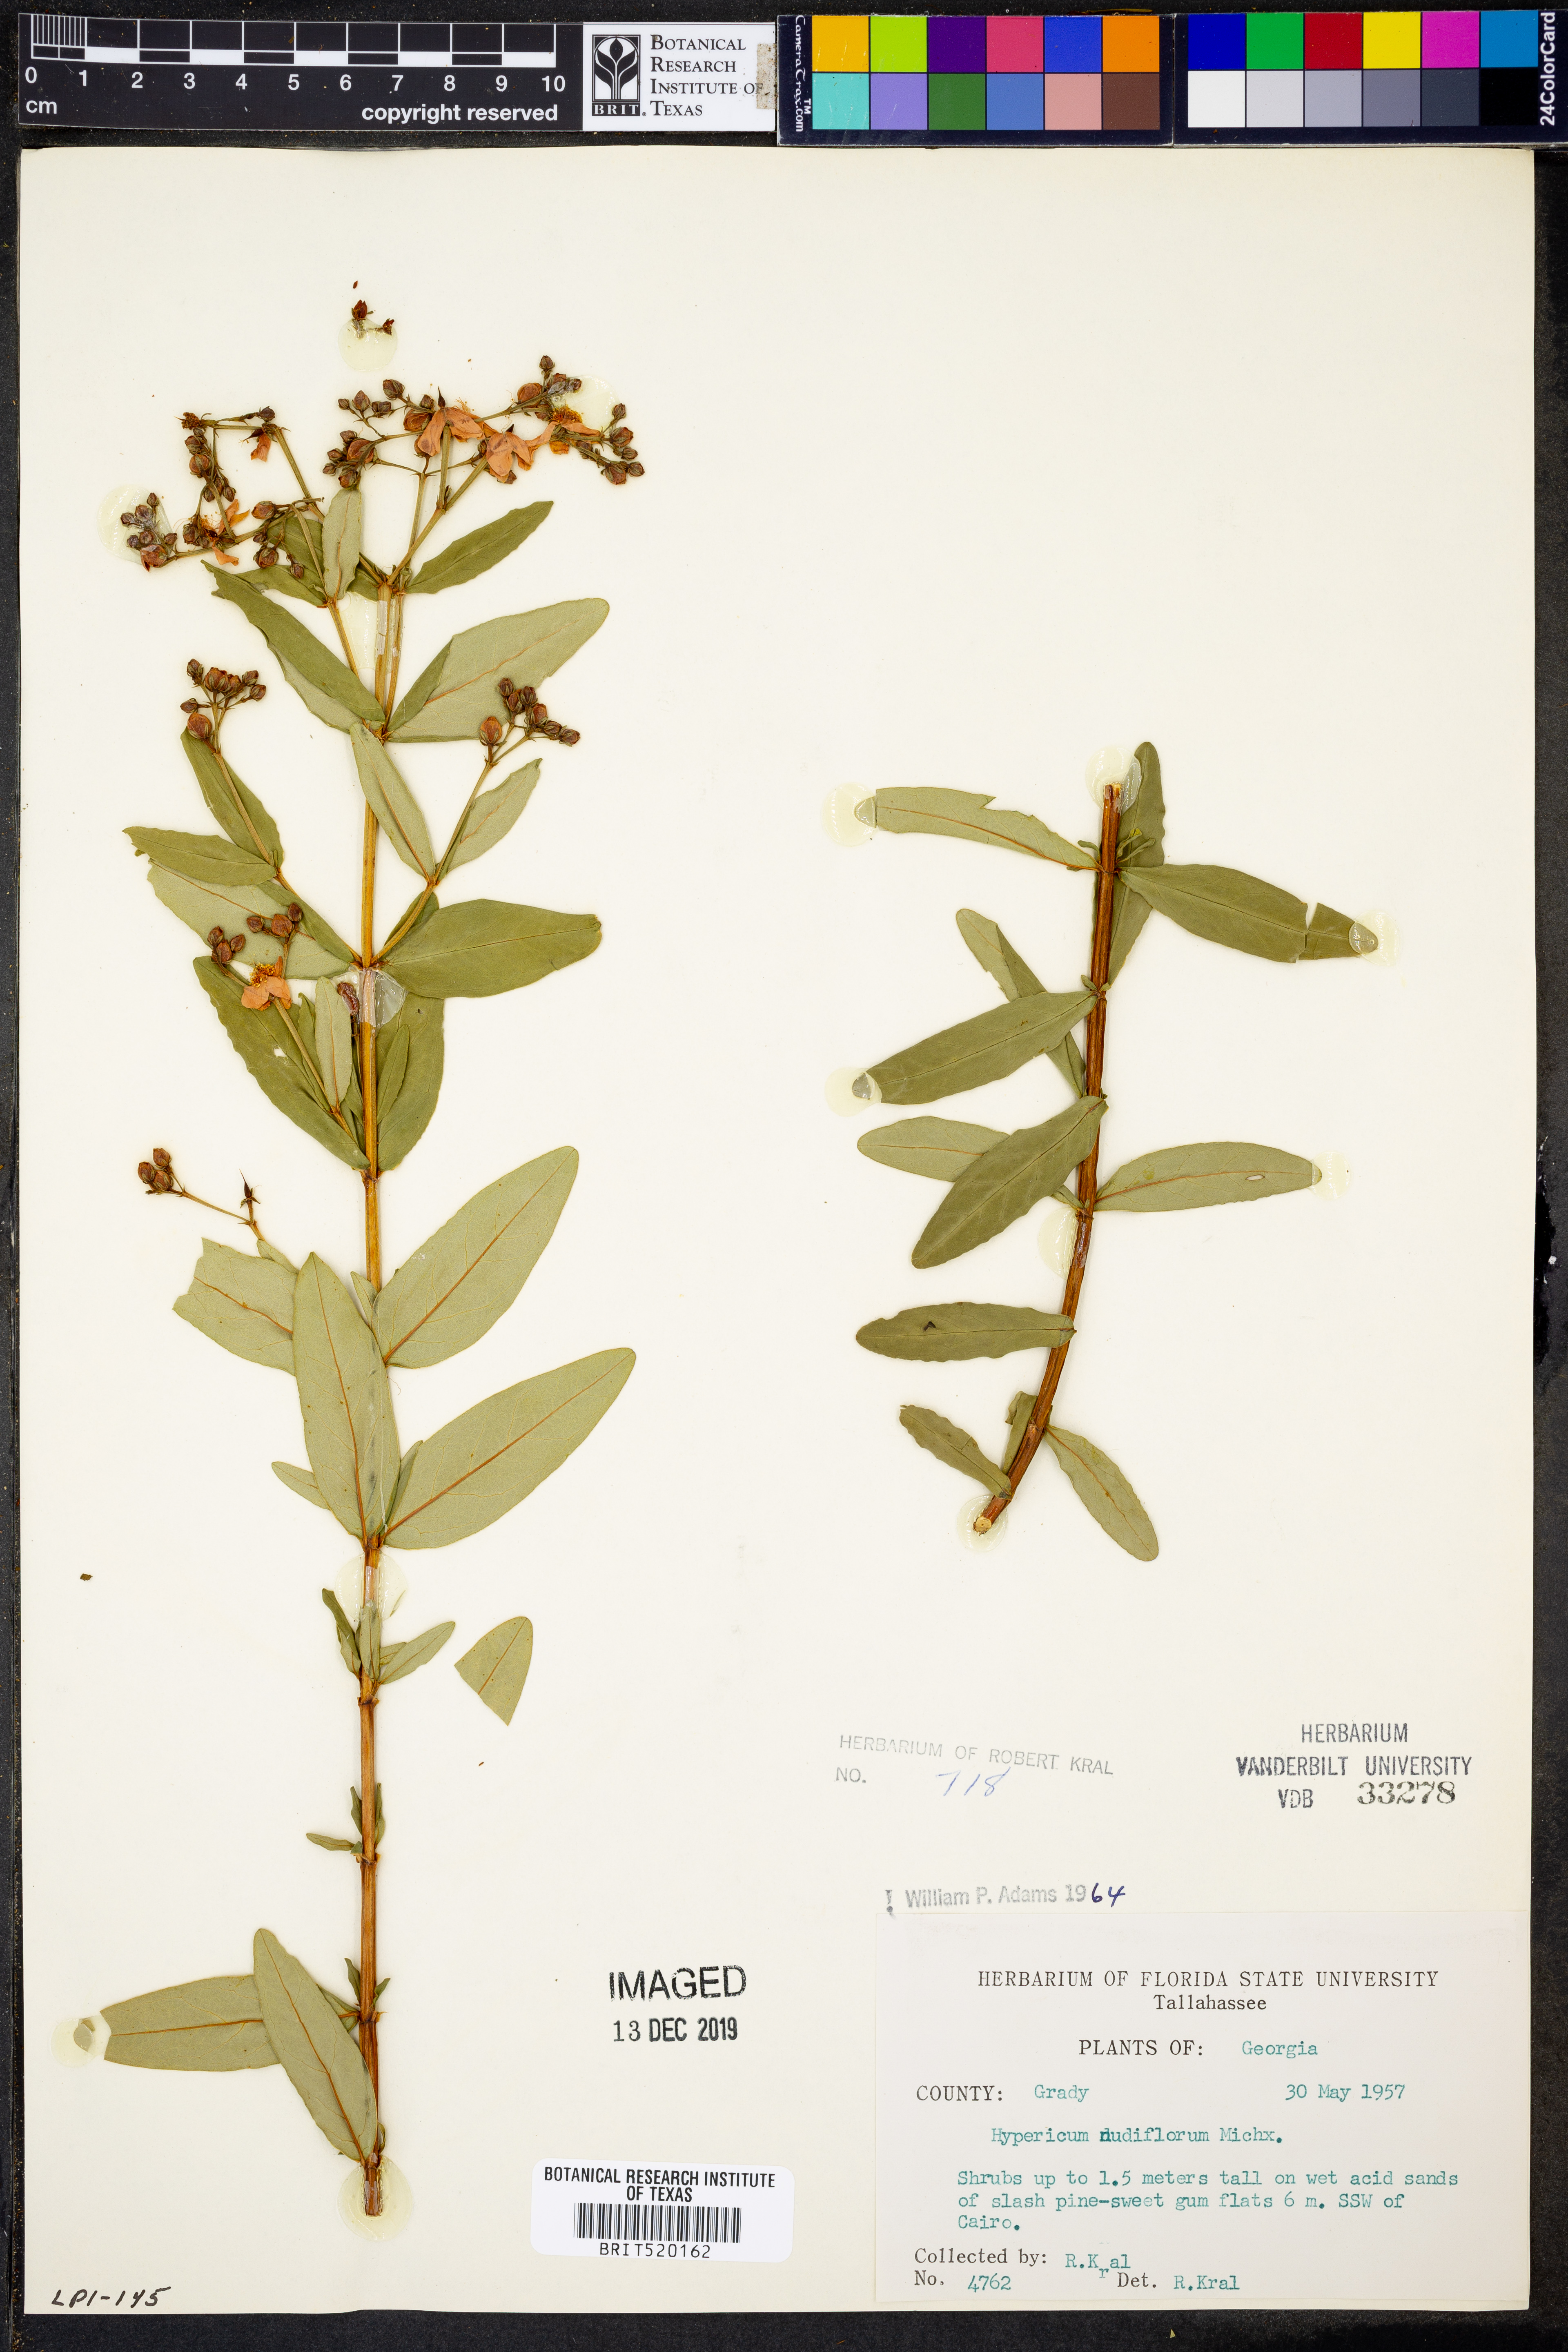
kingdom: Plantae
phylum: Tracheophyta
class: Magnoliopsida
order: Malpighiales
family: Hypericaceae
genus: Hypericum
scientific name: Hypericum nudiflorum
